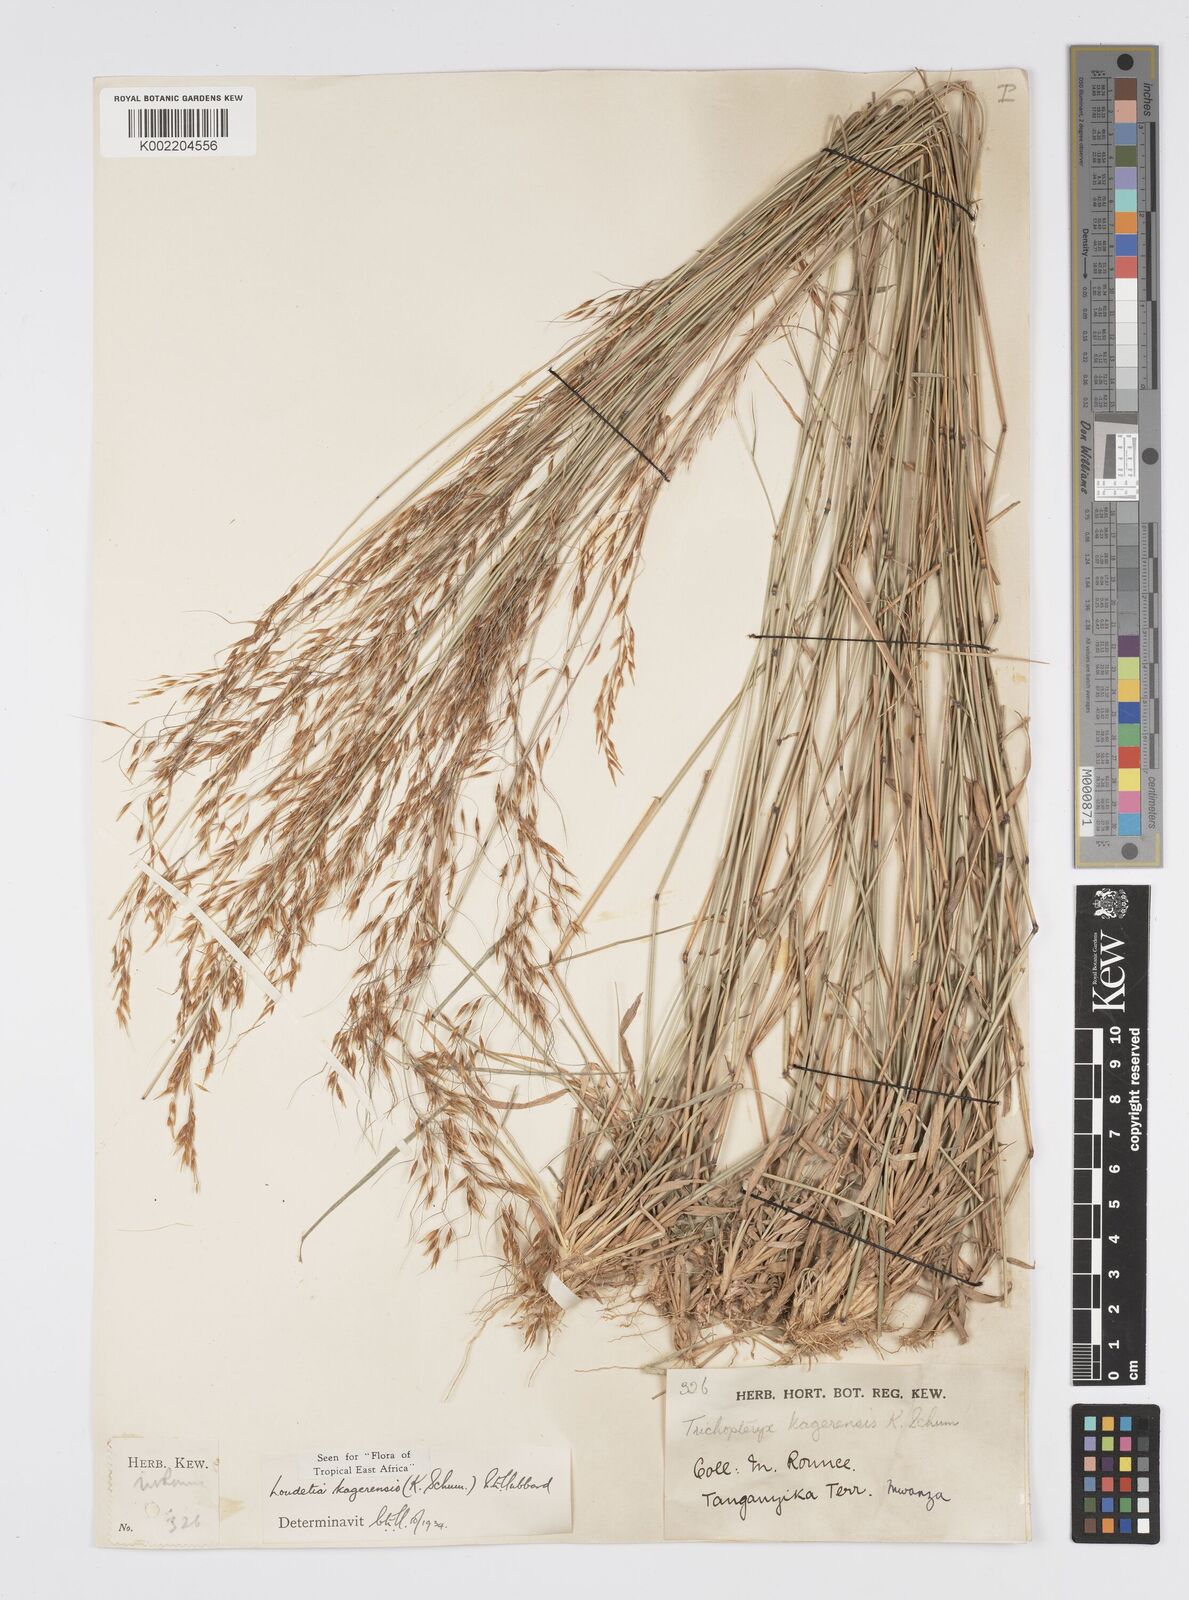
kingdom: Plantae
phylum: Tracheophyta
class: Liliopsida
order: Poales
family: Poaceae
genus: Loudetia
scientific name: Loudetia kagerensis
